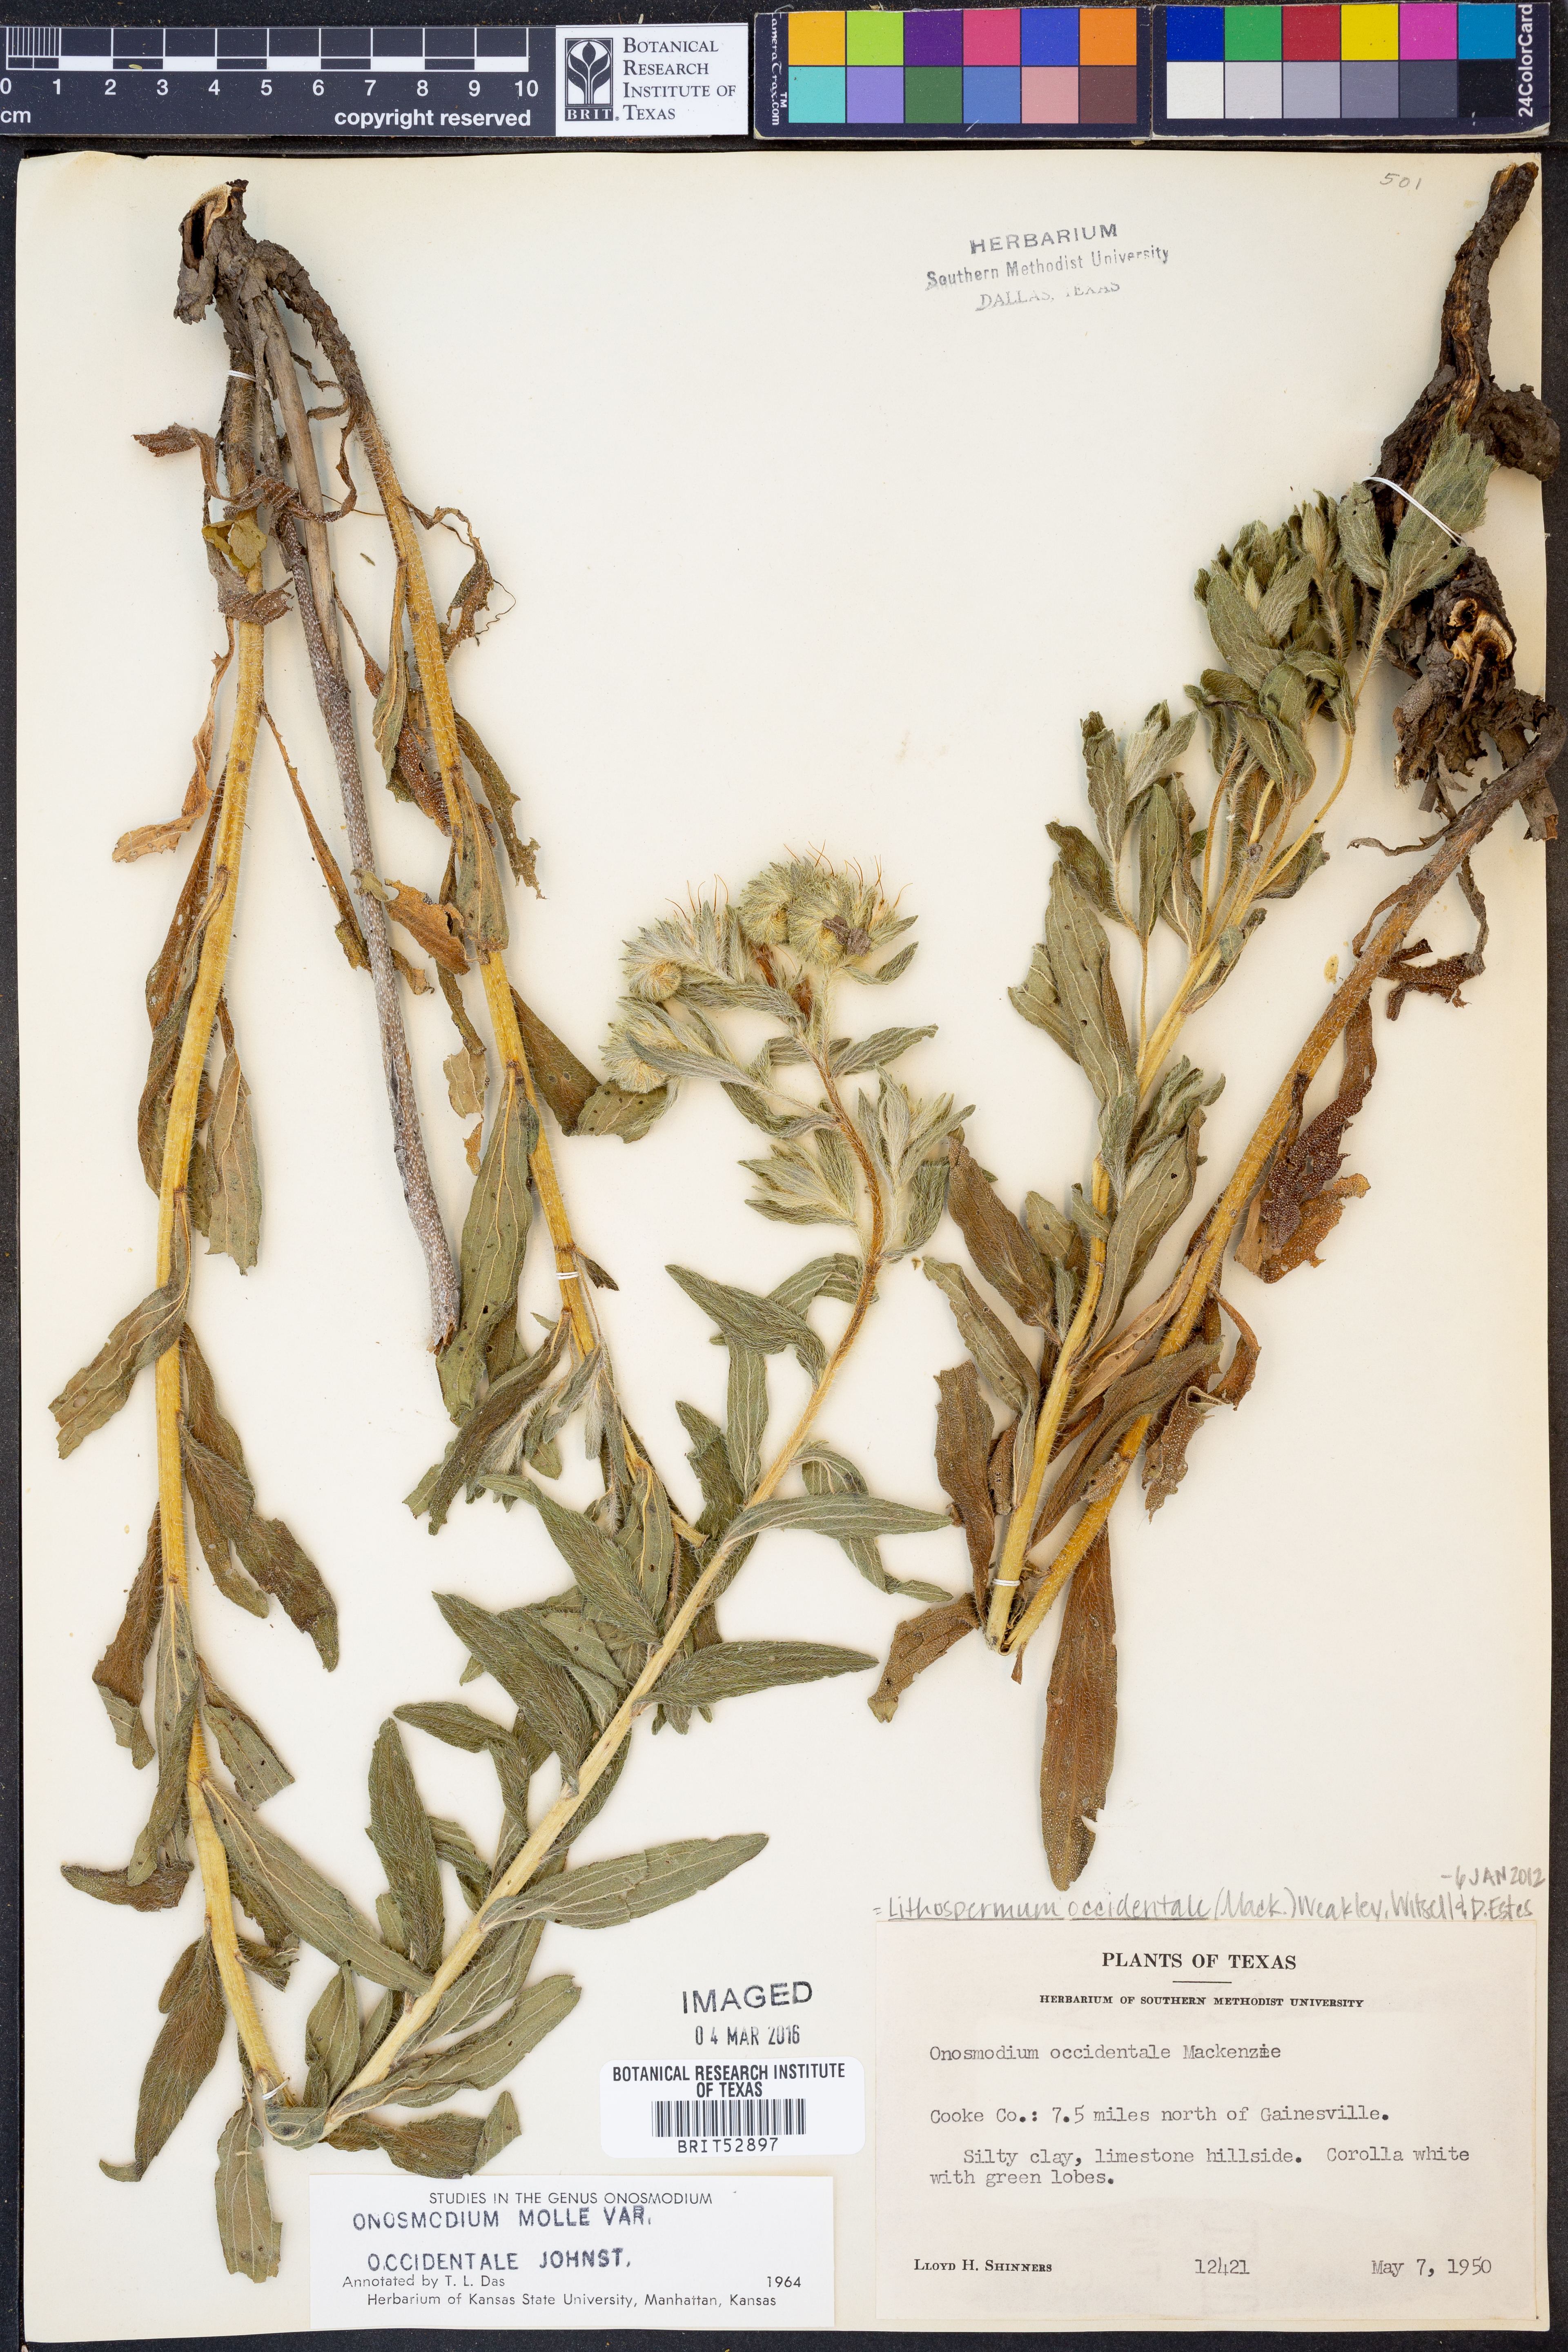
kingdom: Plantae
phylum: Tracheophyta
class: Magnoliopsida
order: Boraginales
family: Boraginaceae
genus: Lithospermum
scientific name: Lithospermum occidentale
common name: Western false gromwell
